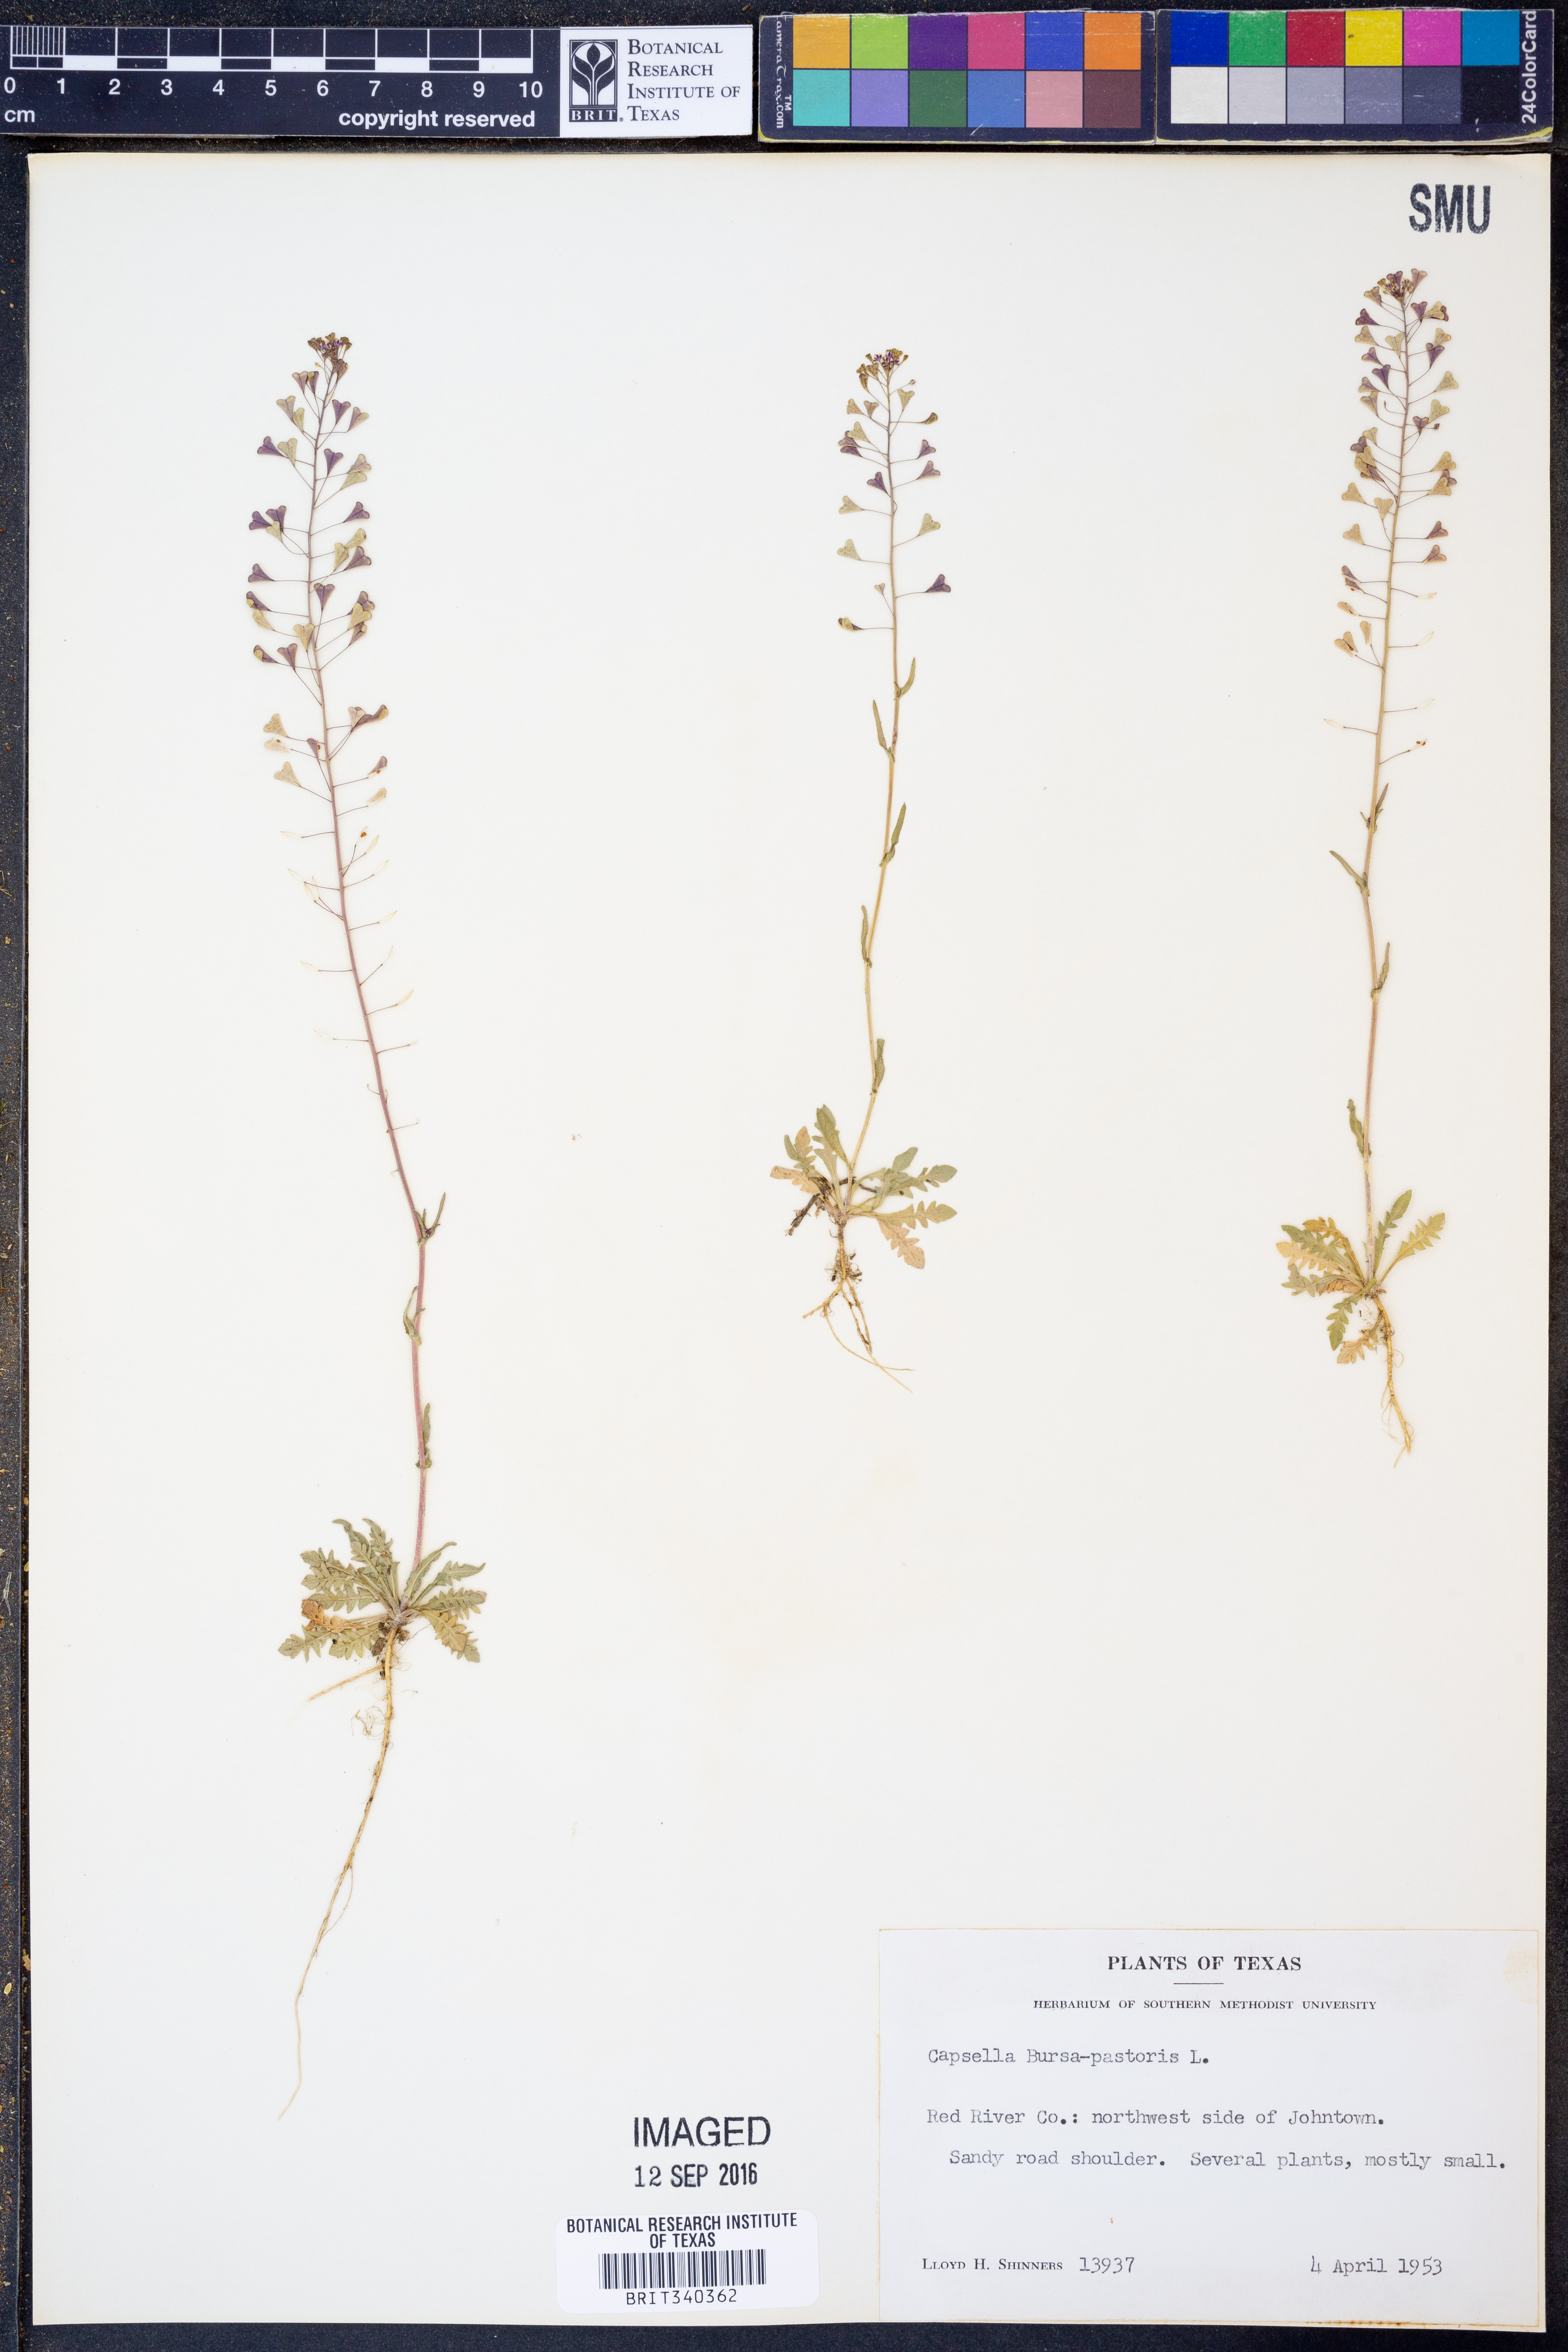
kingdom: Plantae
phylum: Tracheophyta
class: Magnoliopsida
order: Brassicales
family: Brassicaceae
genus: Capsella
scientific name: Capsella bursa-pastoris
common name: Shepherd's purse
